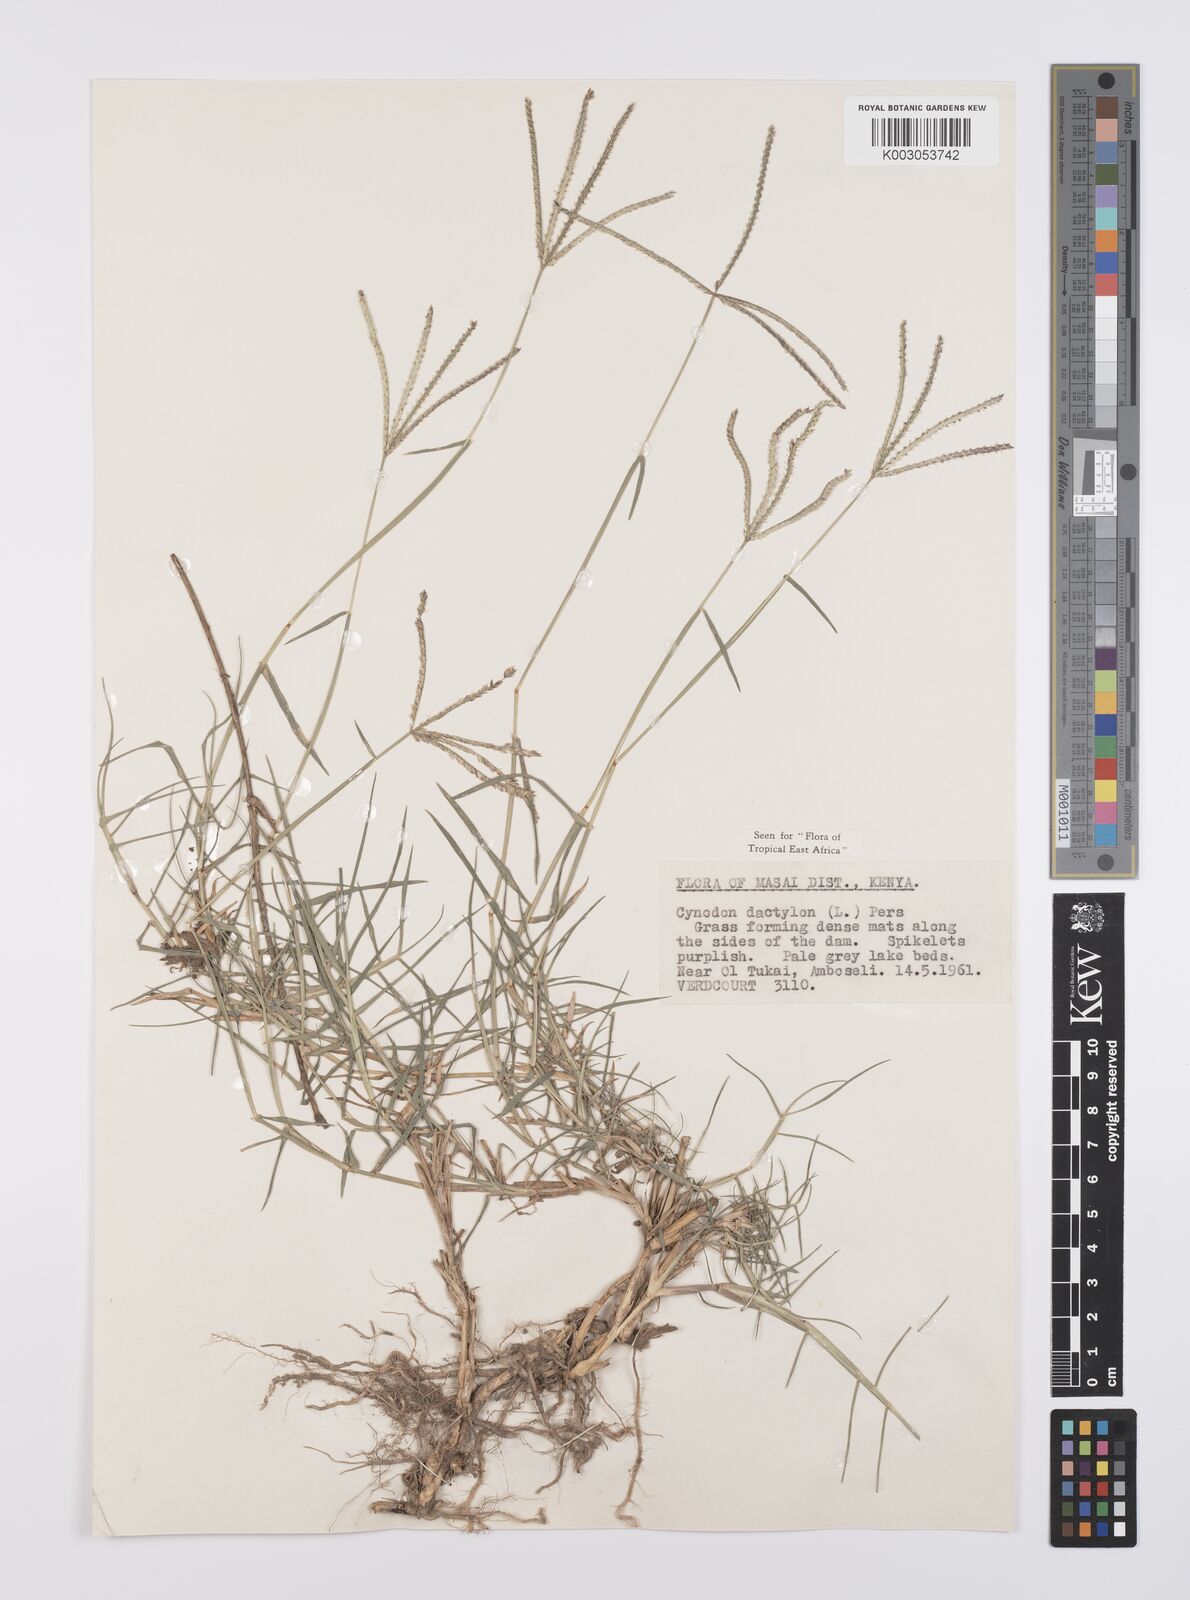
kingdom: Plantae
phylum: Tracheophyta
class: Liliopsida
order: Poales
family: Poaceae
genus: Cynodon
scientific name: Cynodon dactylon
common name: Bermuda grass
